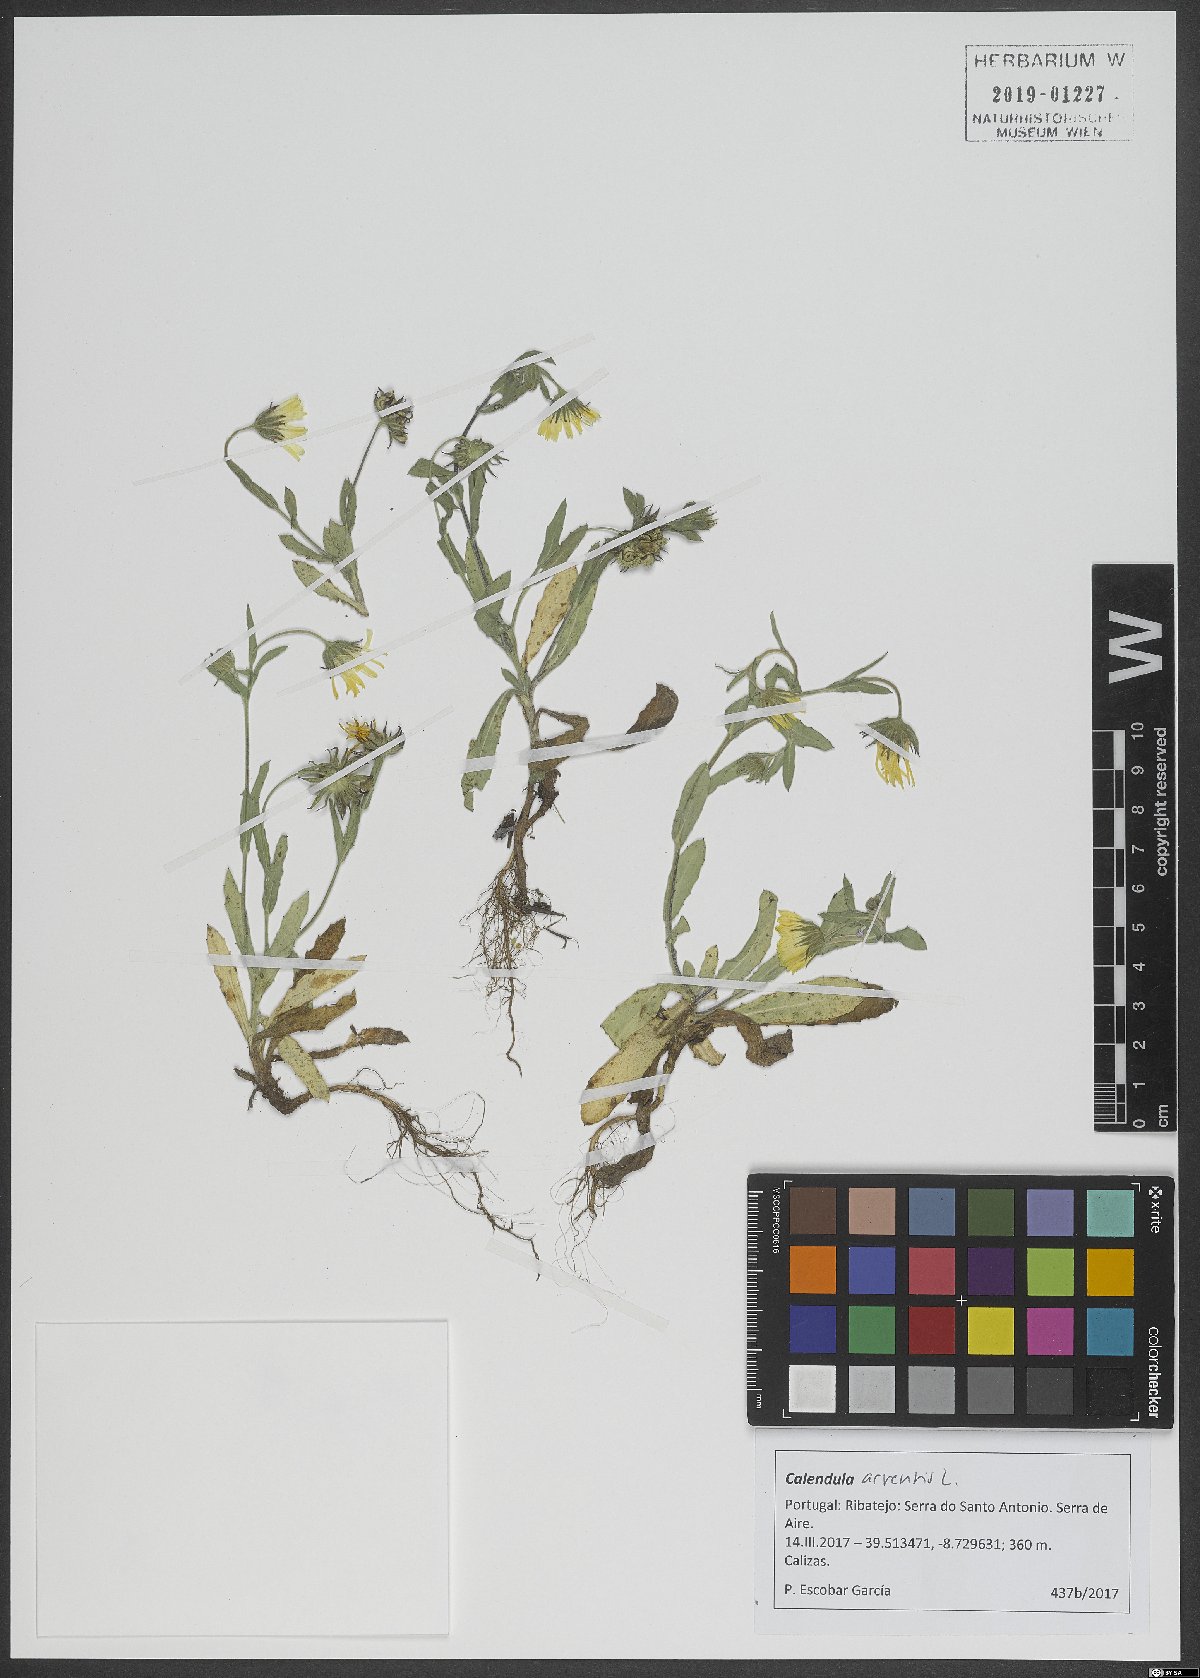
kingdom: Plantae
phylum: Tracheophyta
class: Magnoliopsida
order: Asterales
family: Asteraceae
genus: Calendula
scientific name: Calendula arvensis
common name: Field marigold
